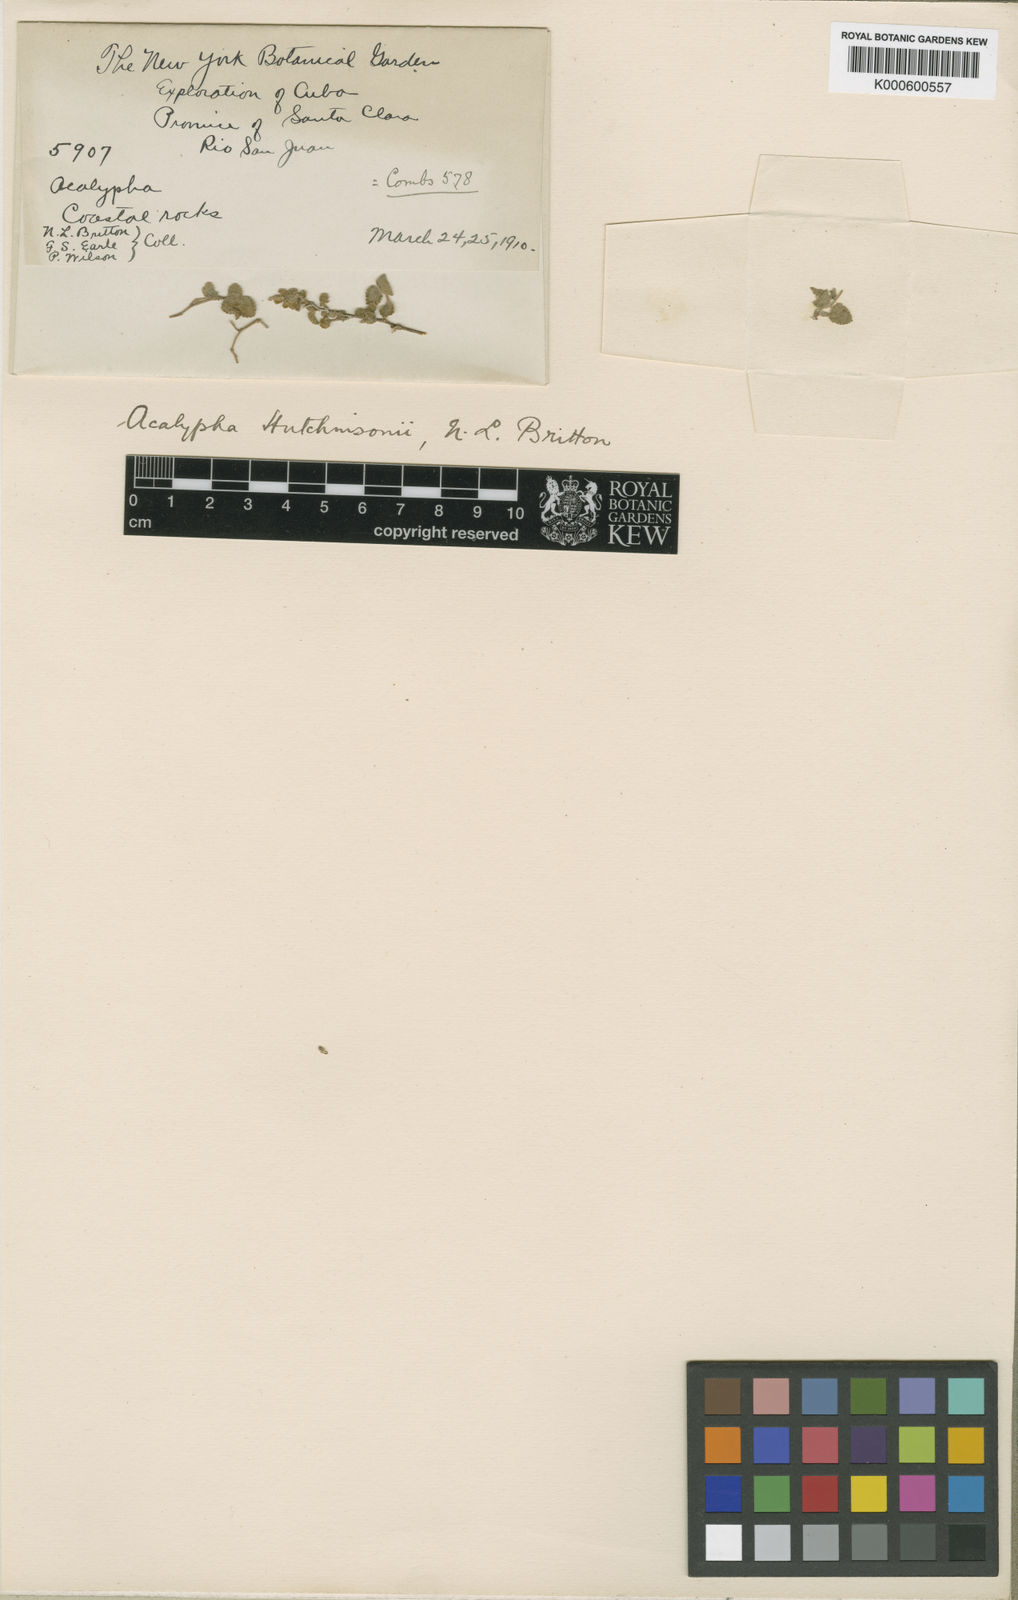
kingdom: Plantae
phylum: Tracheophyta
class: Magnoliopsida
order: Malpighiales
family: Euphorbiaceae
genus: Acalypha
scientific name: Acalypha hutchinsonii
